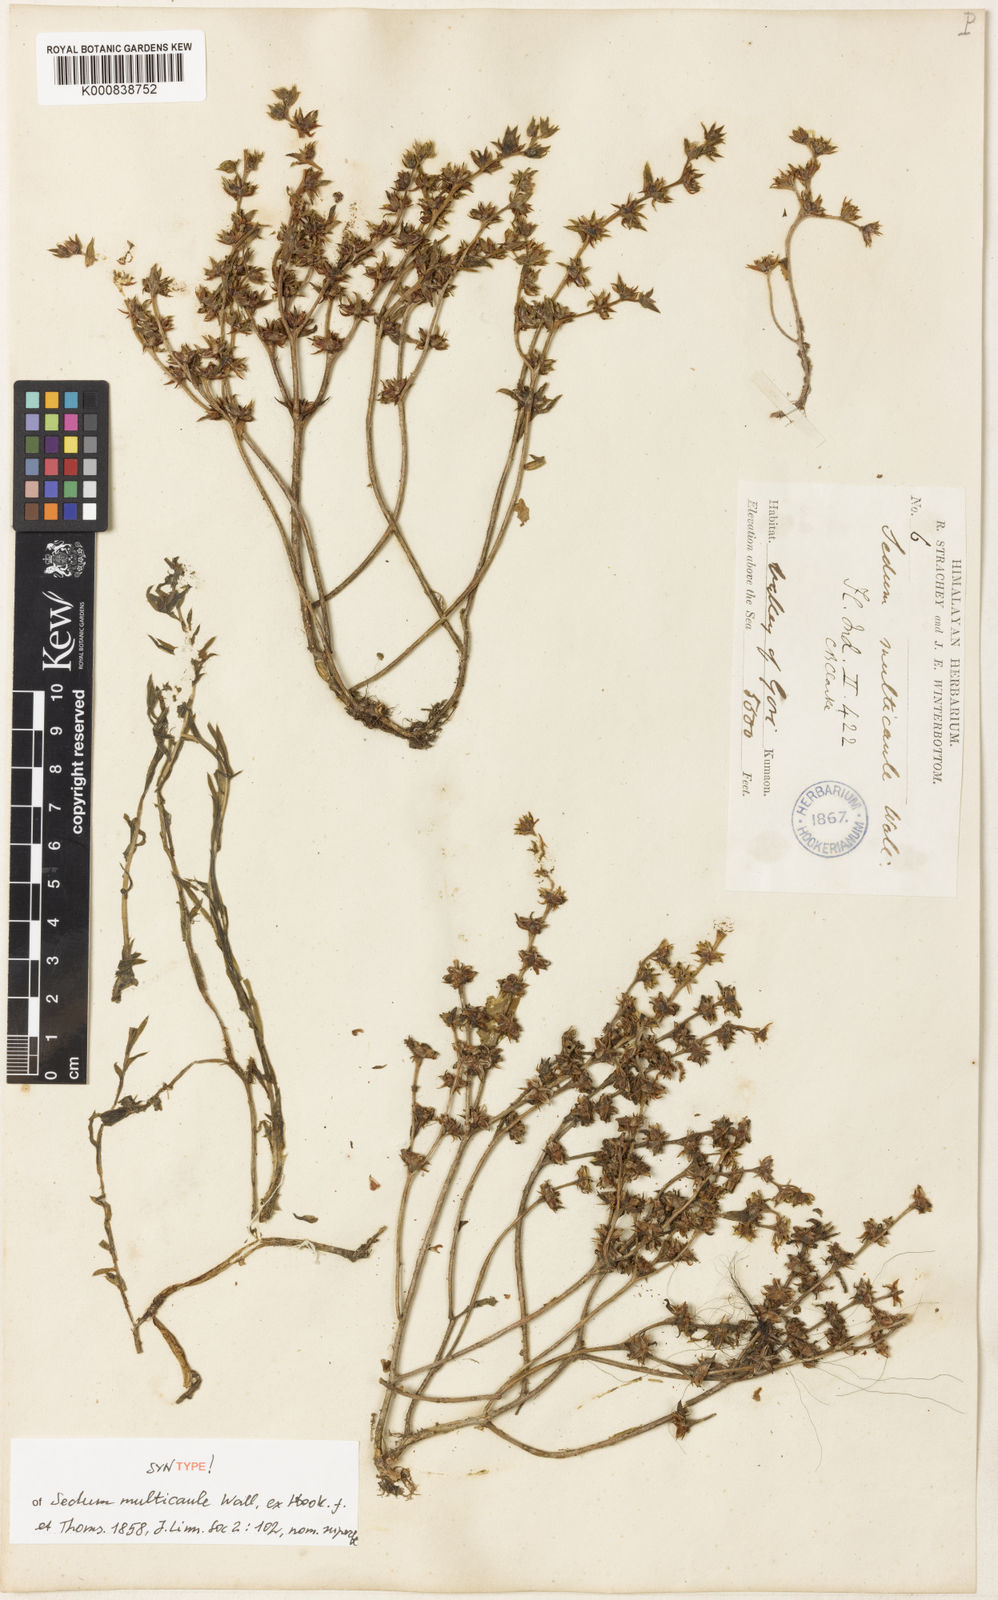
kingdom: Plantae
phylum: Tracheophyta
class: Magnoliopsida
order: Saxifragales
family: Crassulaceae
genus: Sedum
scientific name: Sedum
